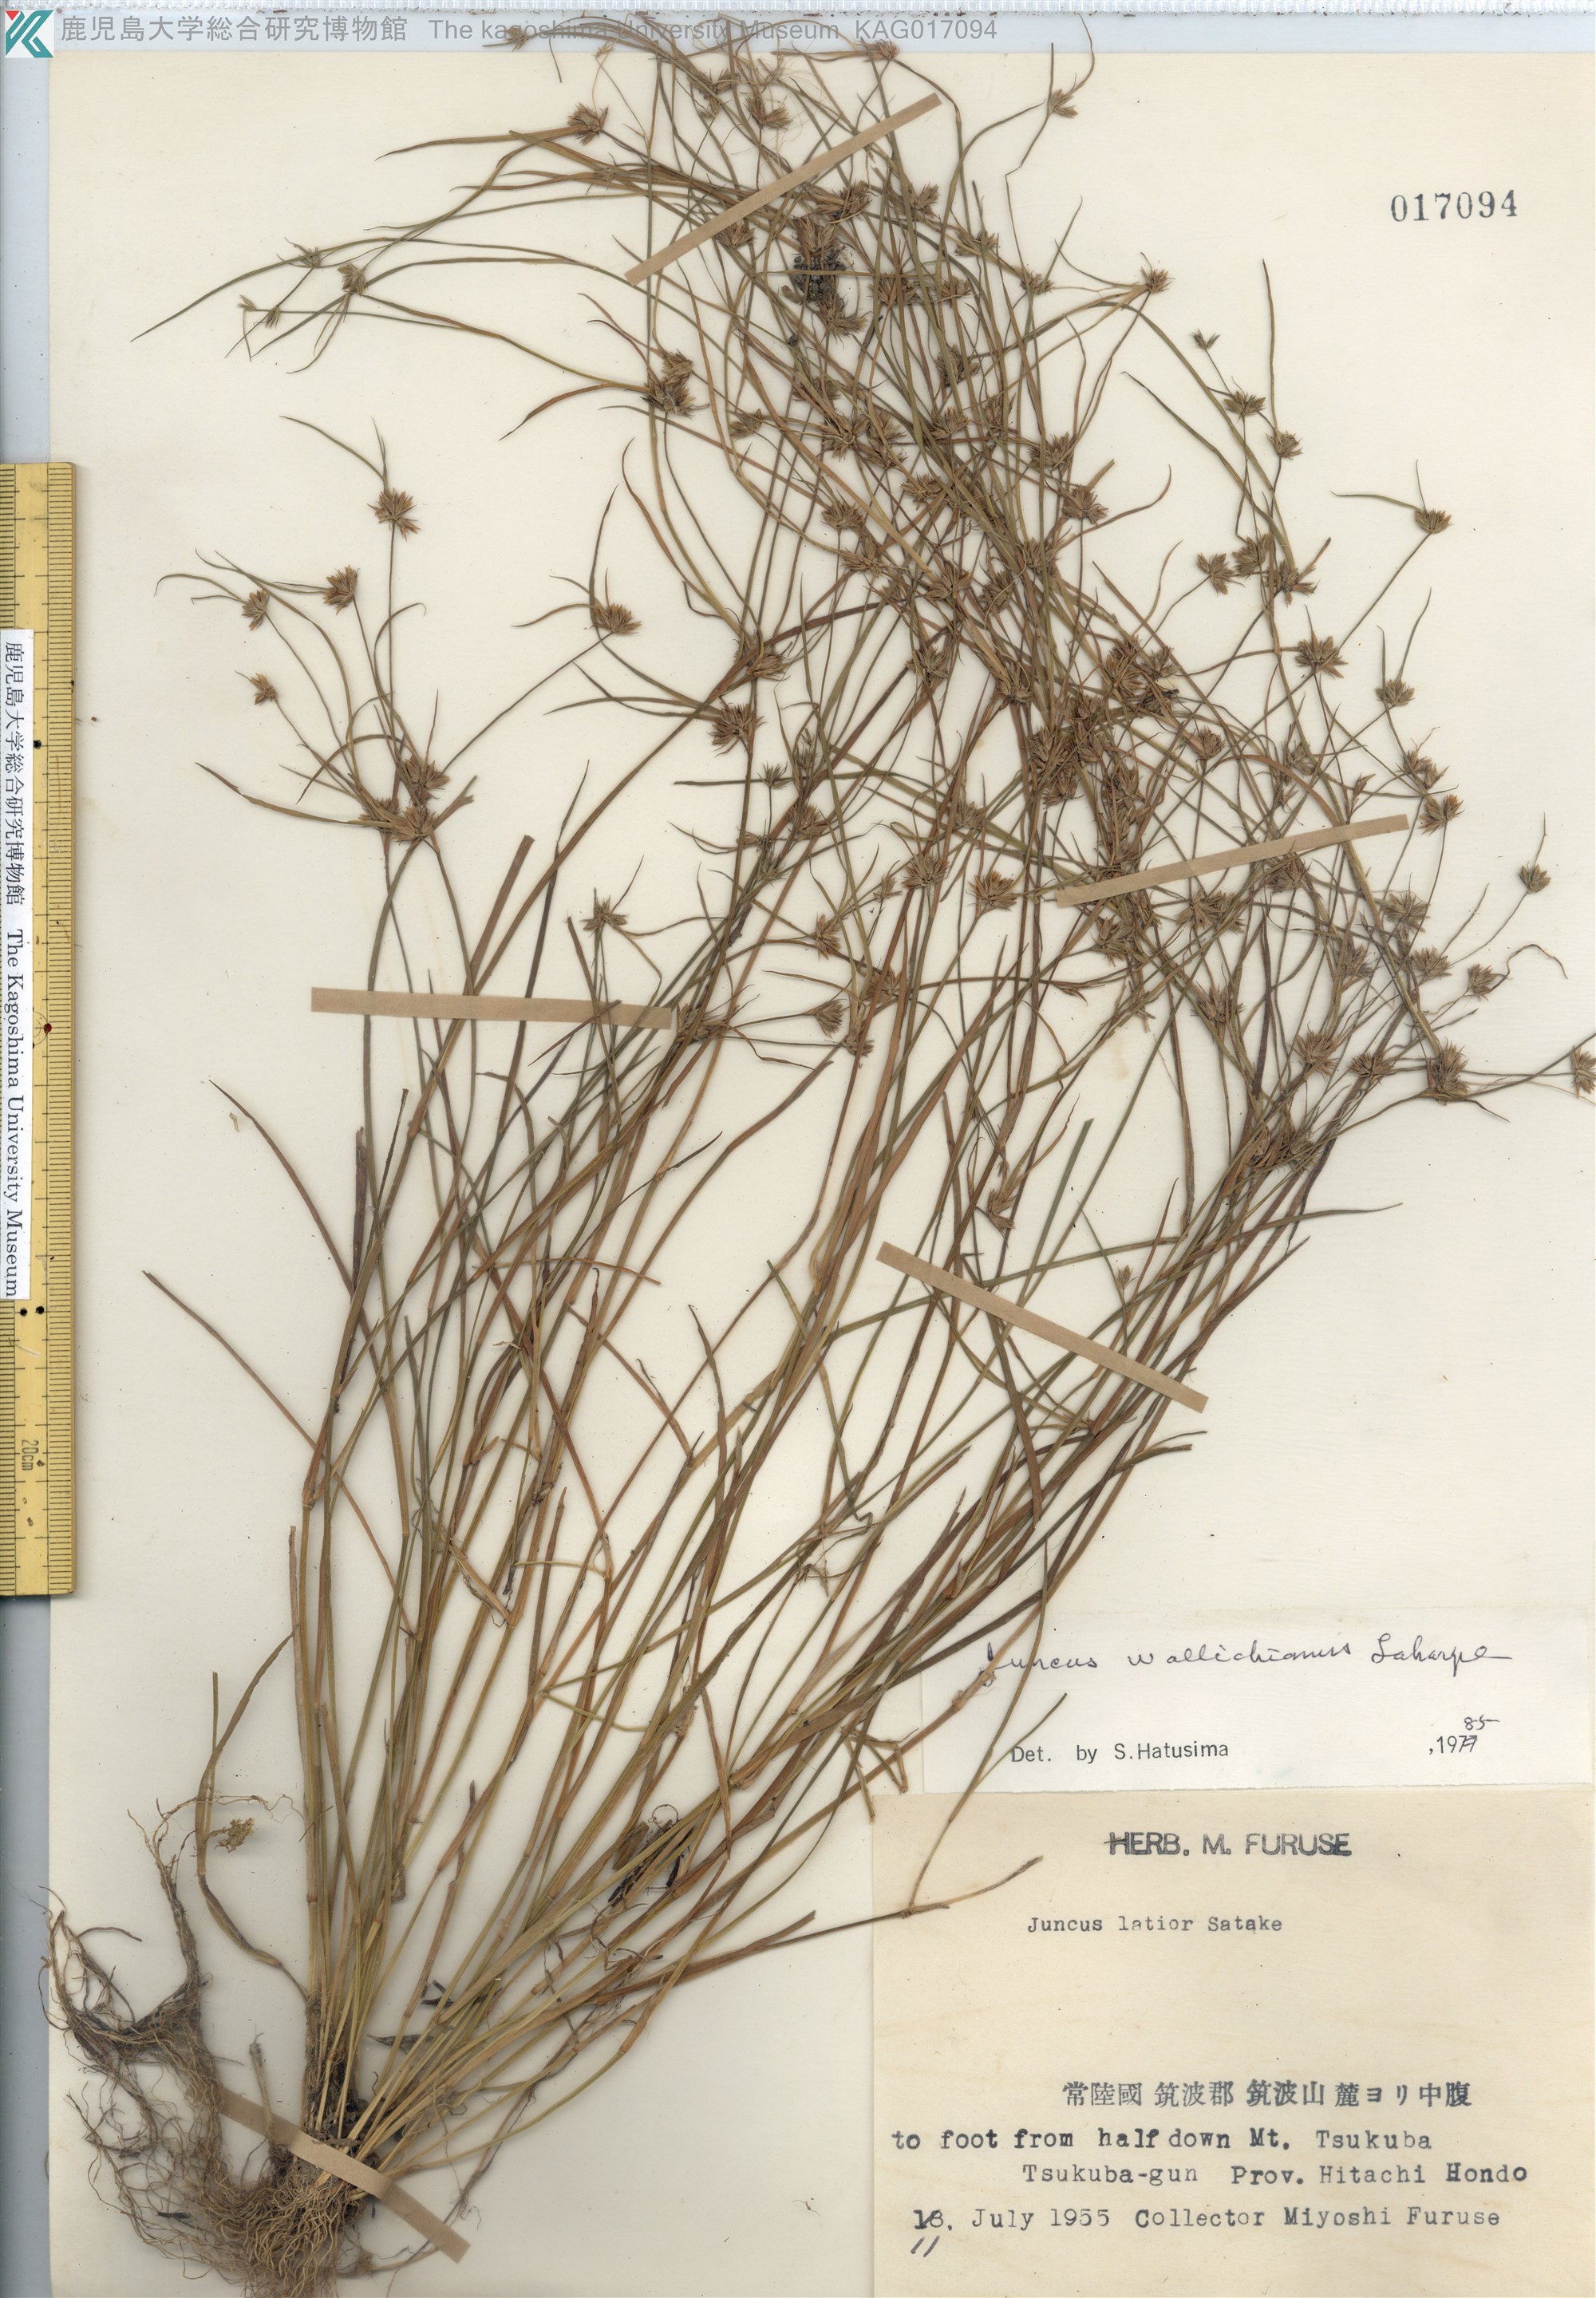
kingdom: Plantae
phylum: Tracheophyta
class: Liliopsida
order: Poales
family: Juncaceae
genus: Juncus
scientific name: Juncus prismatocarpus
